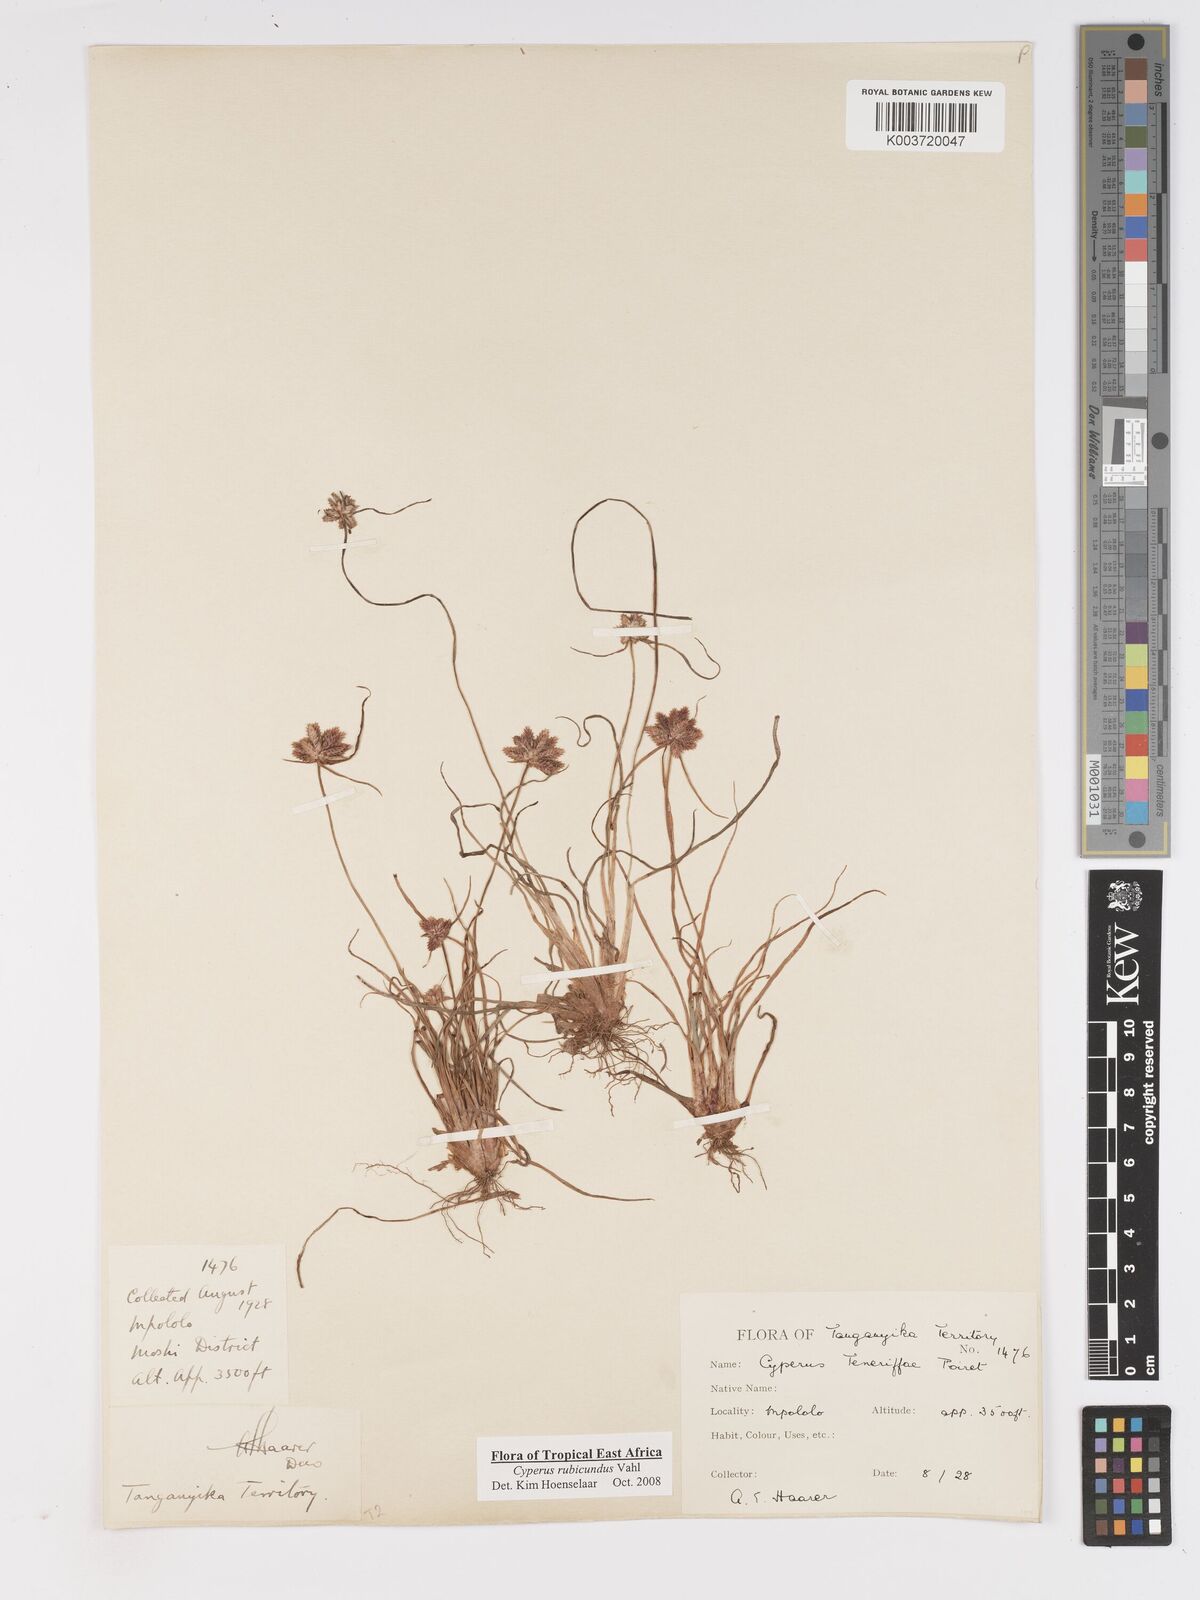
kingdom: Plantae
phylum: Tracheophyta
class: Liliopsida
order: Poales
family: Cyperaceae
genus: Cyperus
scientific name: Cyperus rubicundus
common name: Coco-grass
